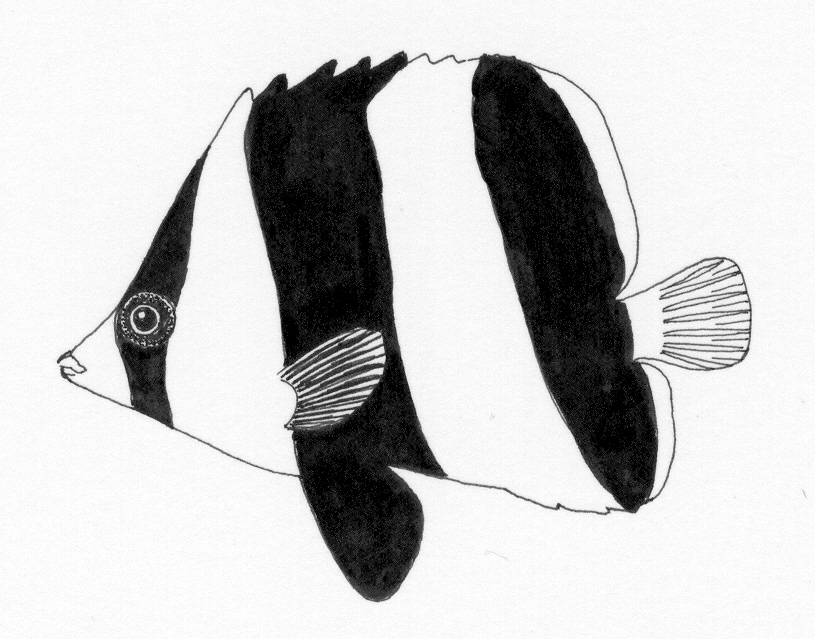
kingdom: Animalia
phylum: Chordata
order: Perciformes
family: Chaetodontidae
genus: Roa
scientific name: Roa
